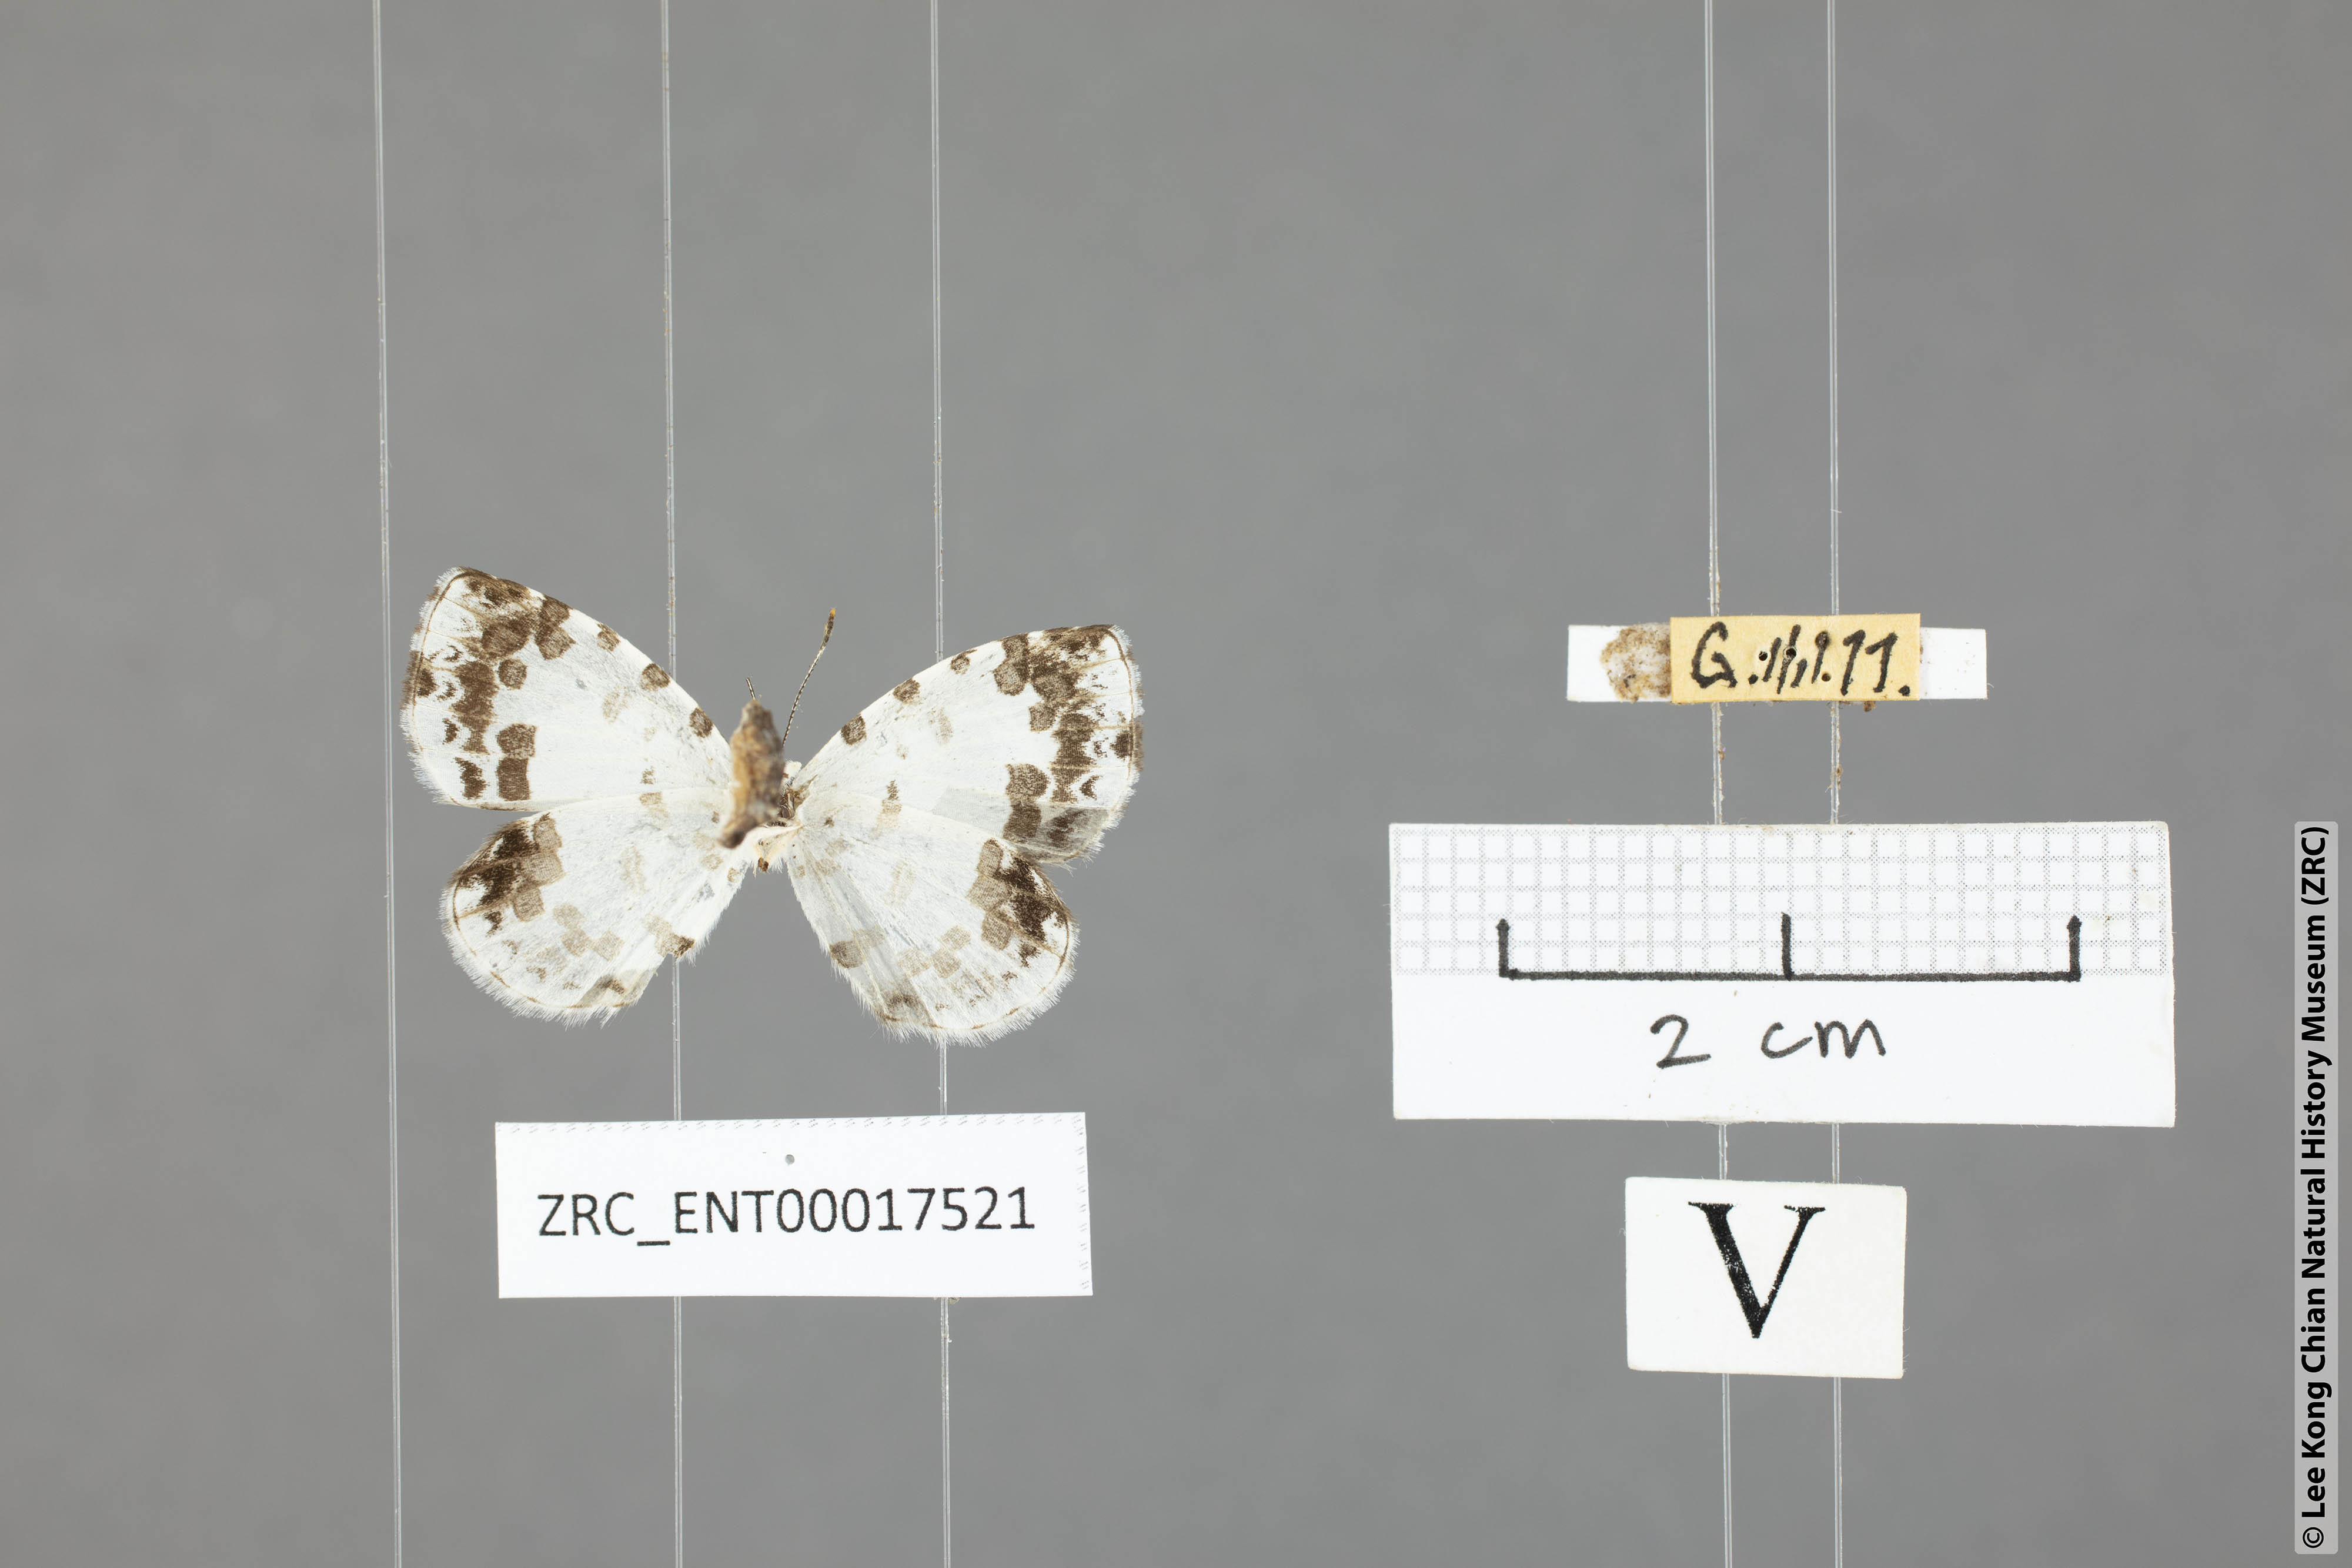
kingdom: Animalia
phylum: Arthropoda
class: Insecta
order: Lepidoptera
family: Lycaenidae
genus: Taraka
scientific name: Taraka mahanetra
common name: Lesser pierrot
